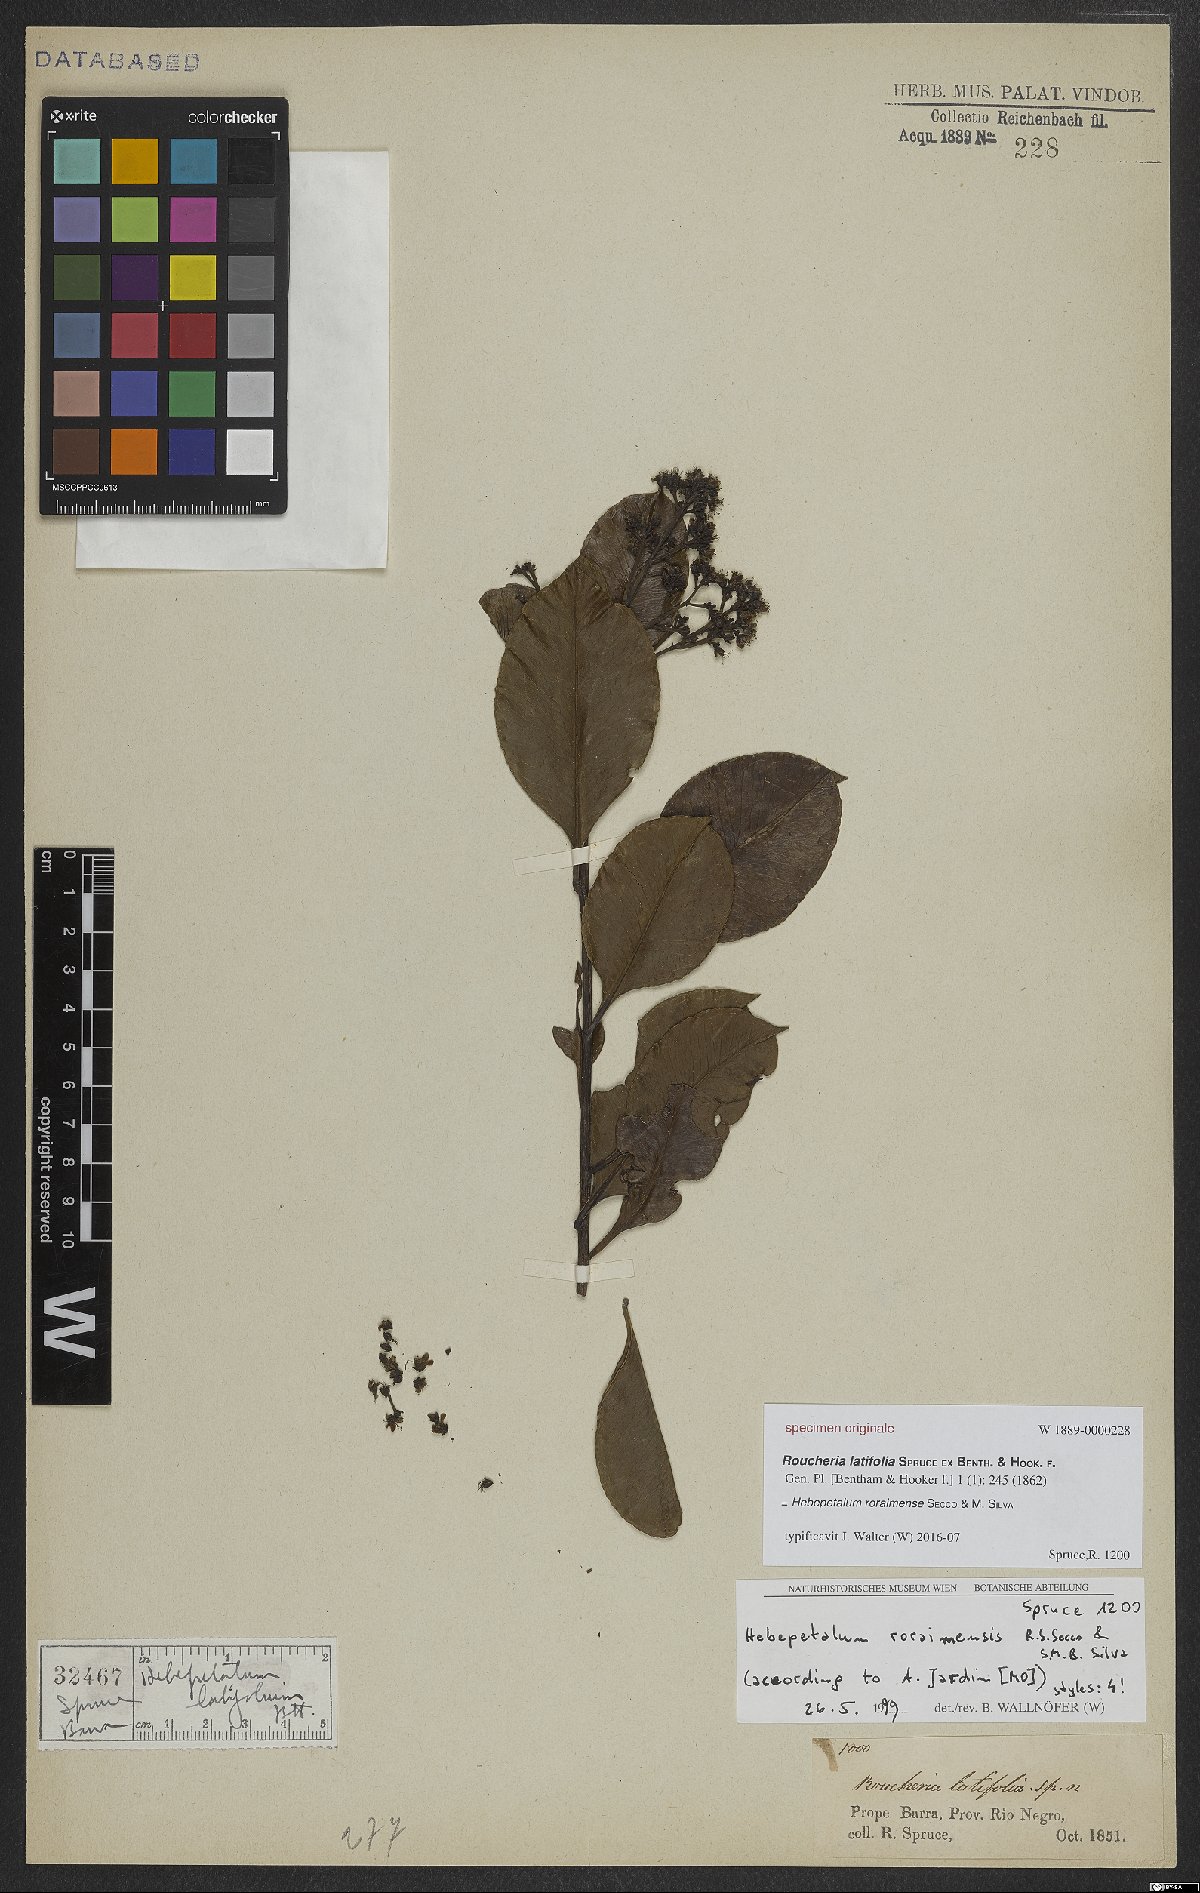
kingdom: Plantae
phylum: Tracheophyta
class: Magnoliopsida
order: Malpighiales
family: Linaceae
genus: Hebepetalum
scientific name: Hebepetalum roraimense
